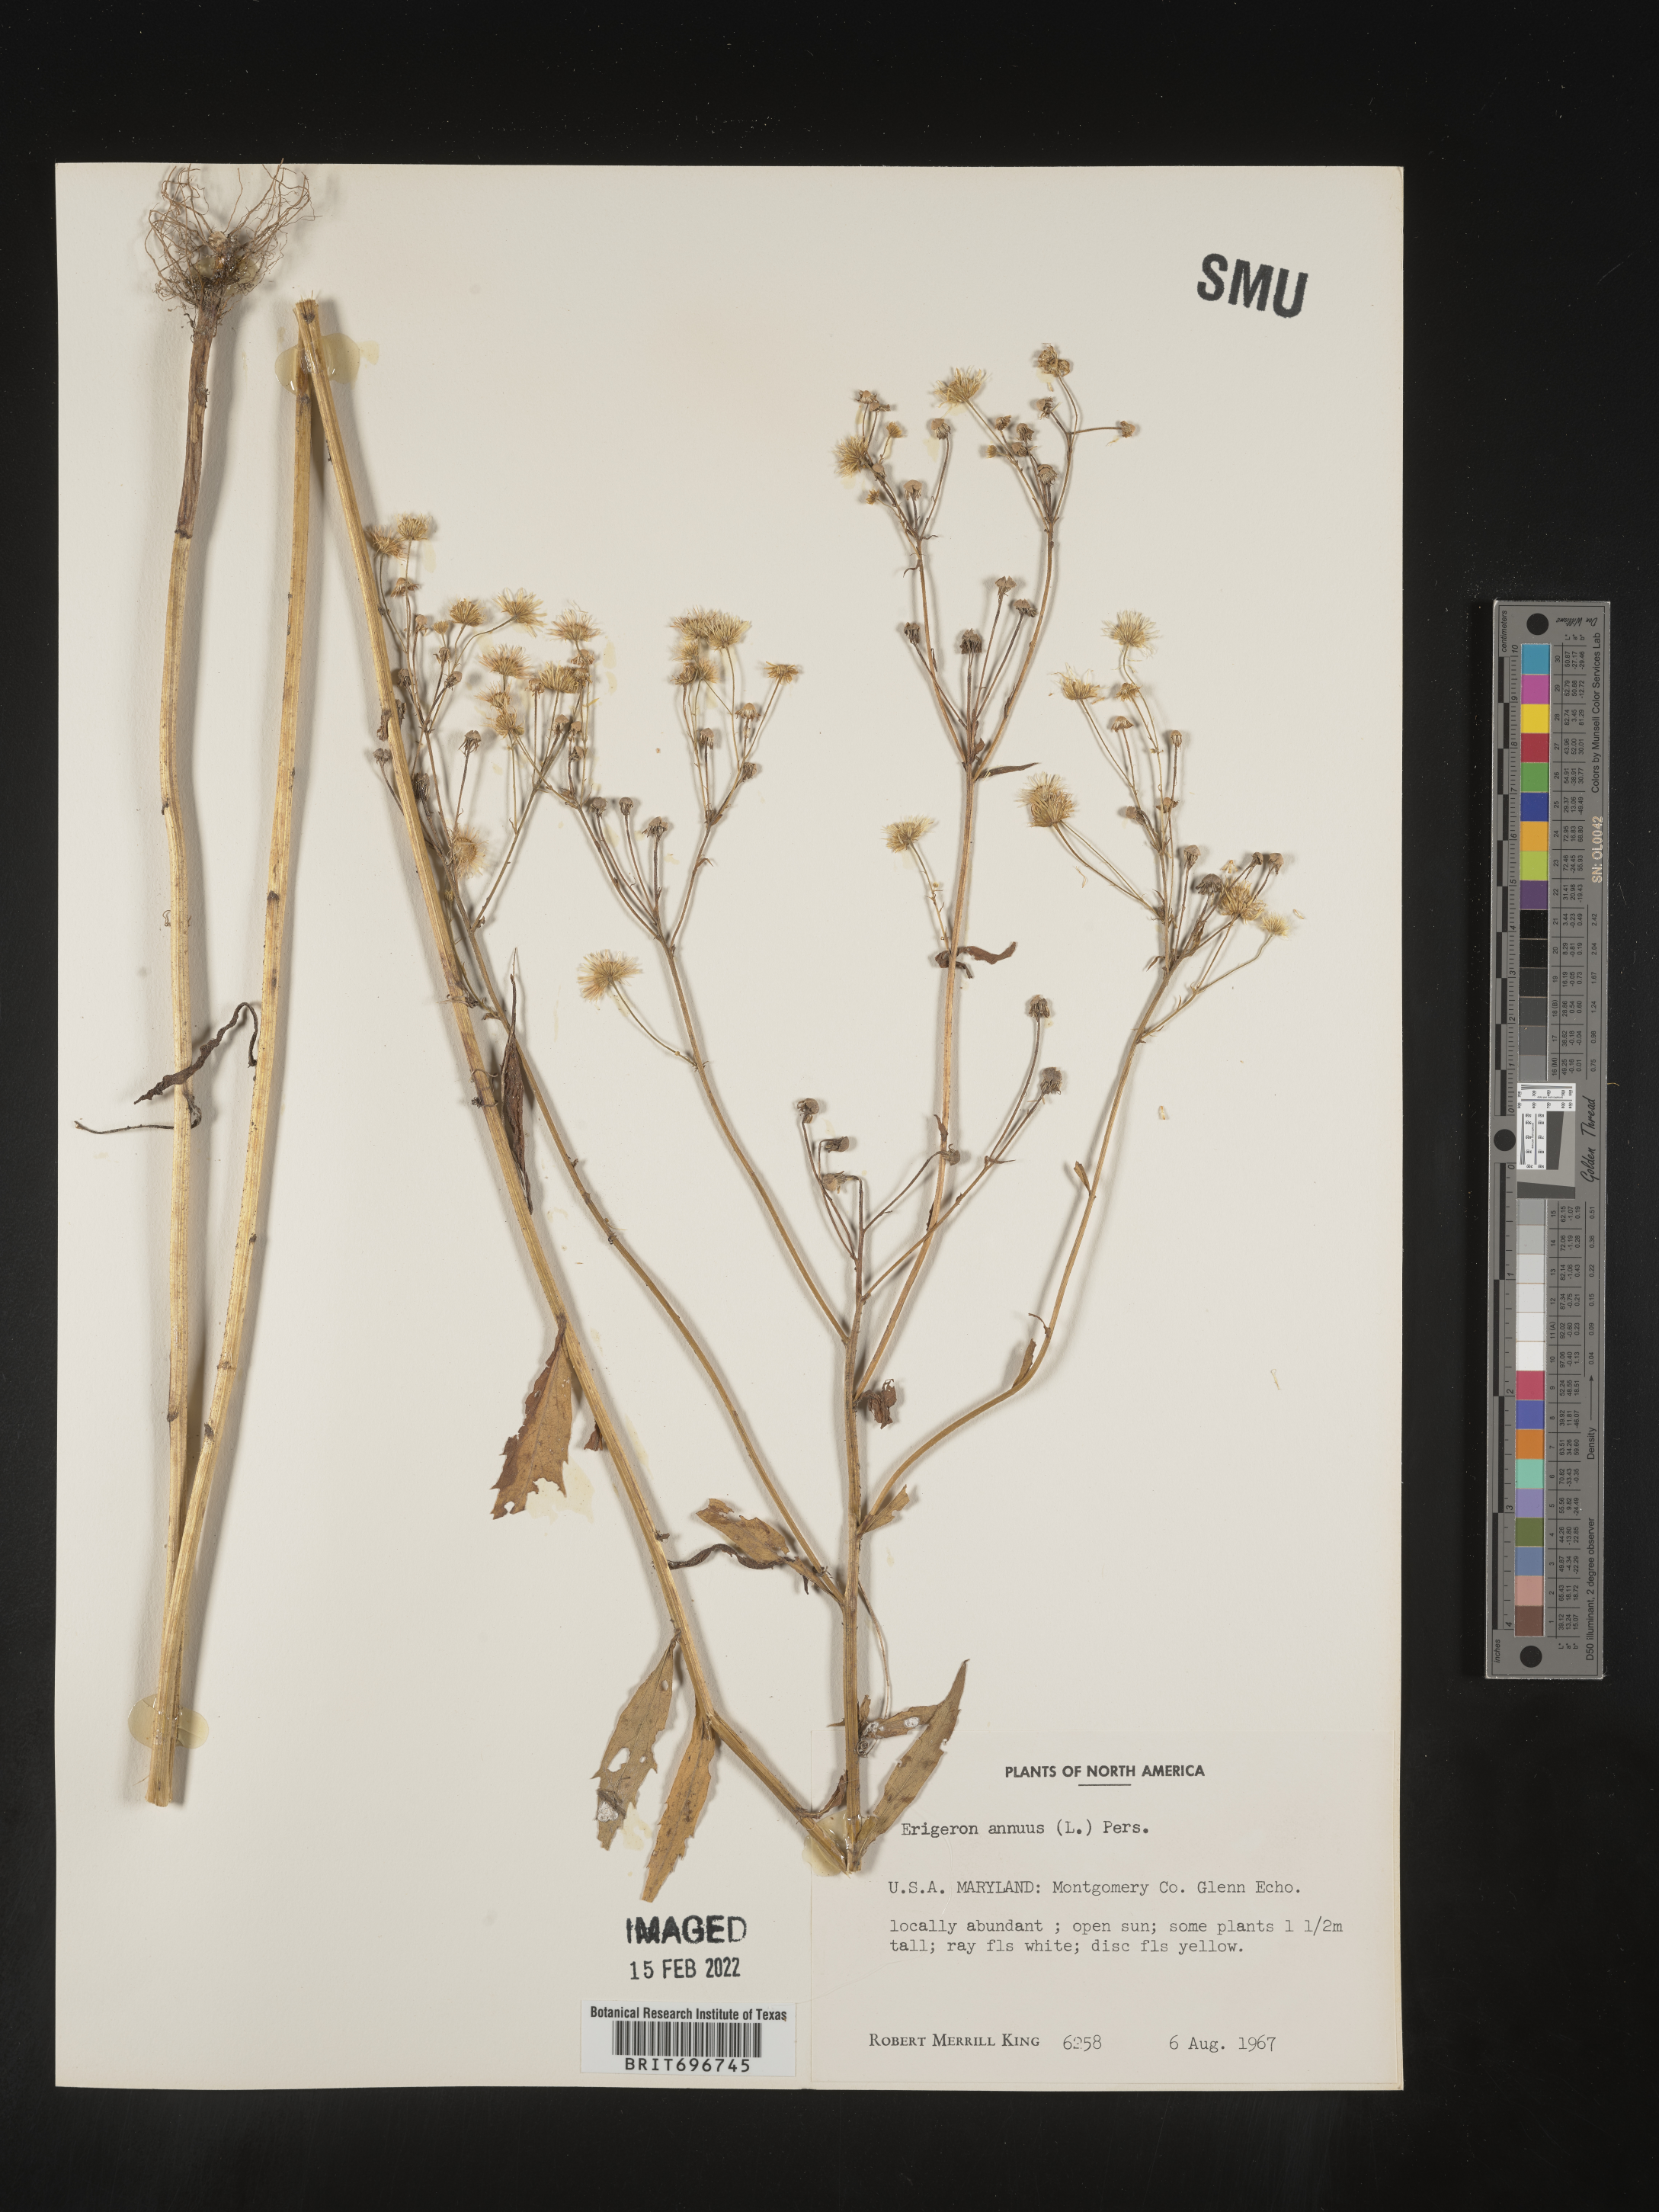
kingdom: Plantae
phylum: Tracheophyta
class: Magnoliopsida
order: Asterales
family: Asteraceae
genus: Erigeron
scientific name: Erigeron annuus
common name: Tall fleabane
